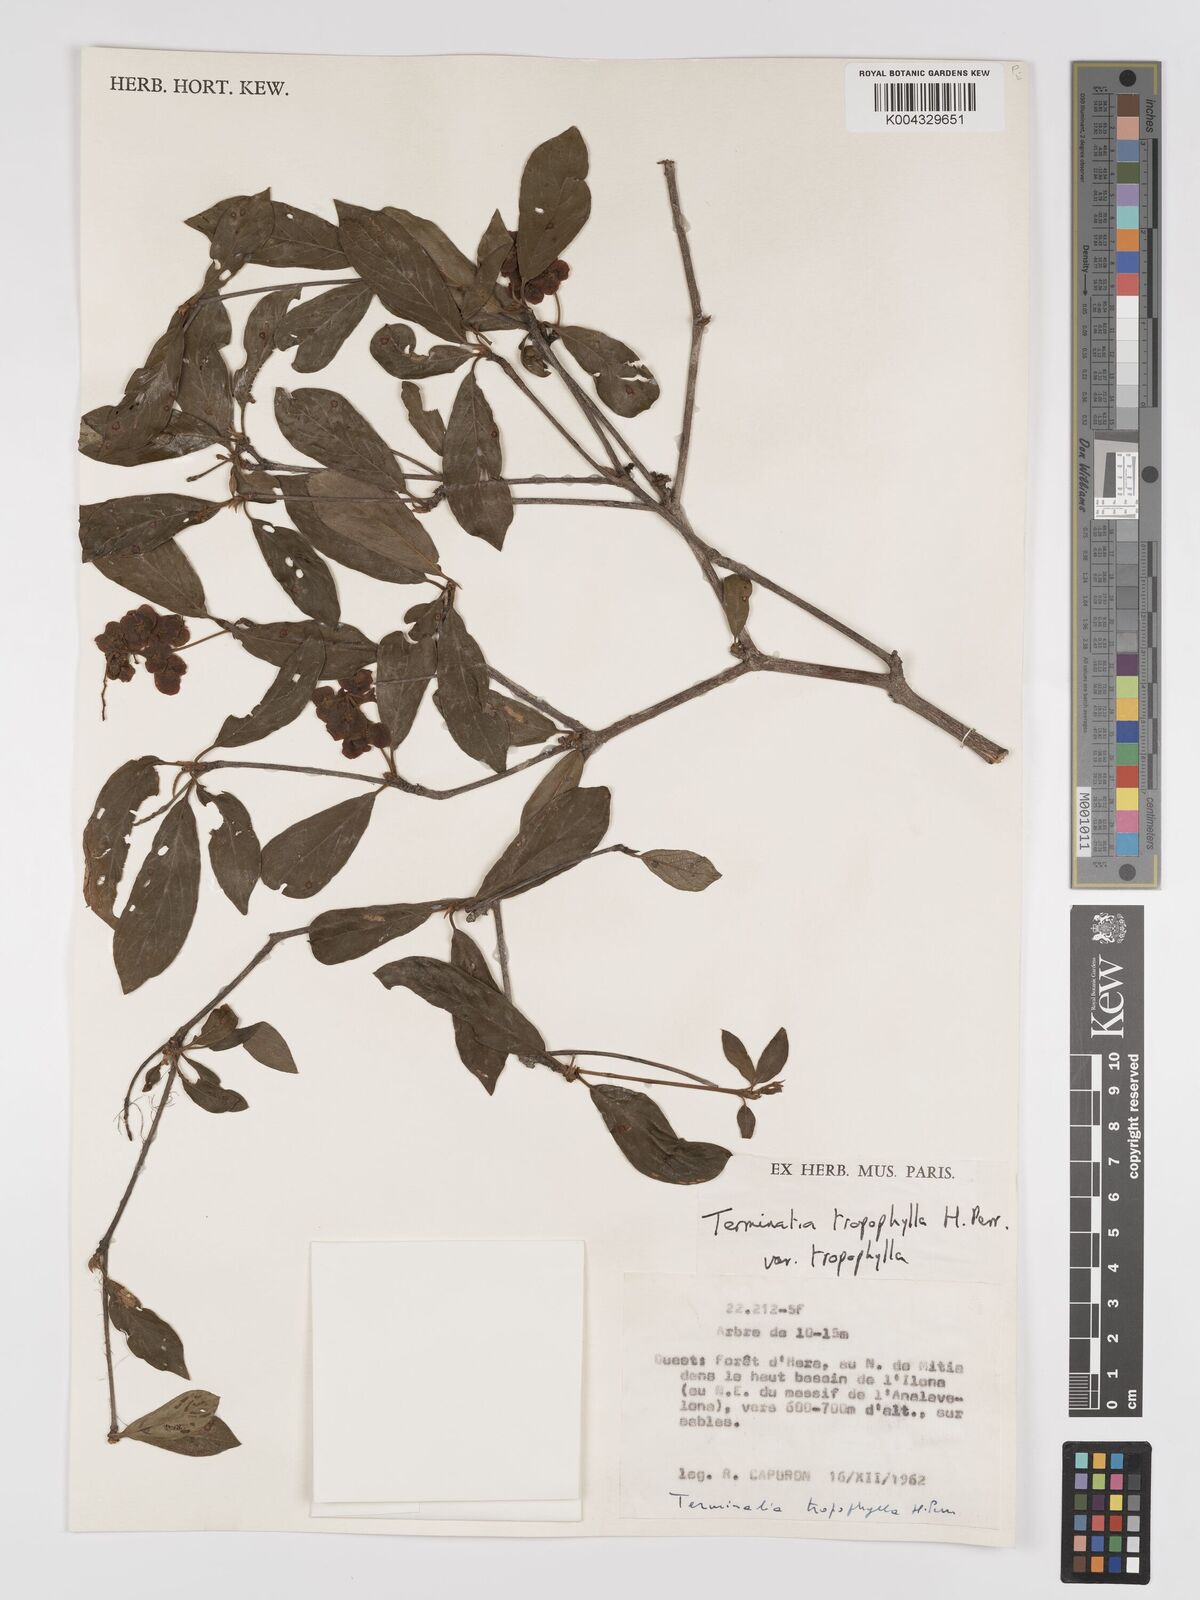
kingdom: Plantae
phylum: Tracheophyta
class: Magnoliopsida
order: Myrtales
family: Combretaceae
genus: Terminalia
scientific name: Terminalia tropophylla
